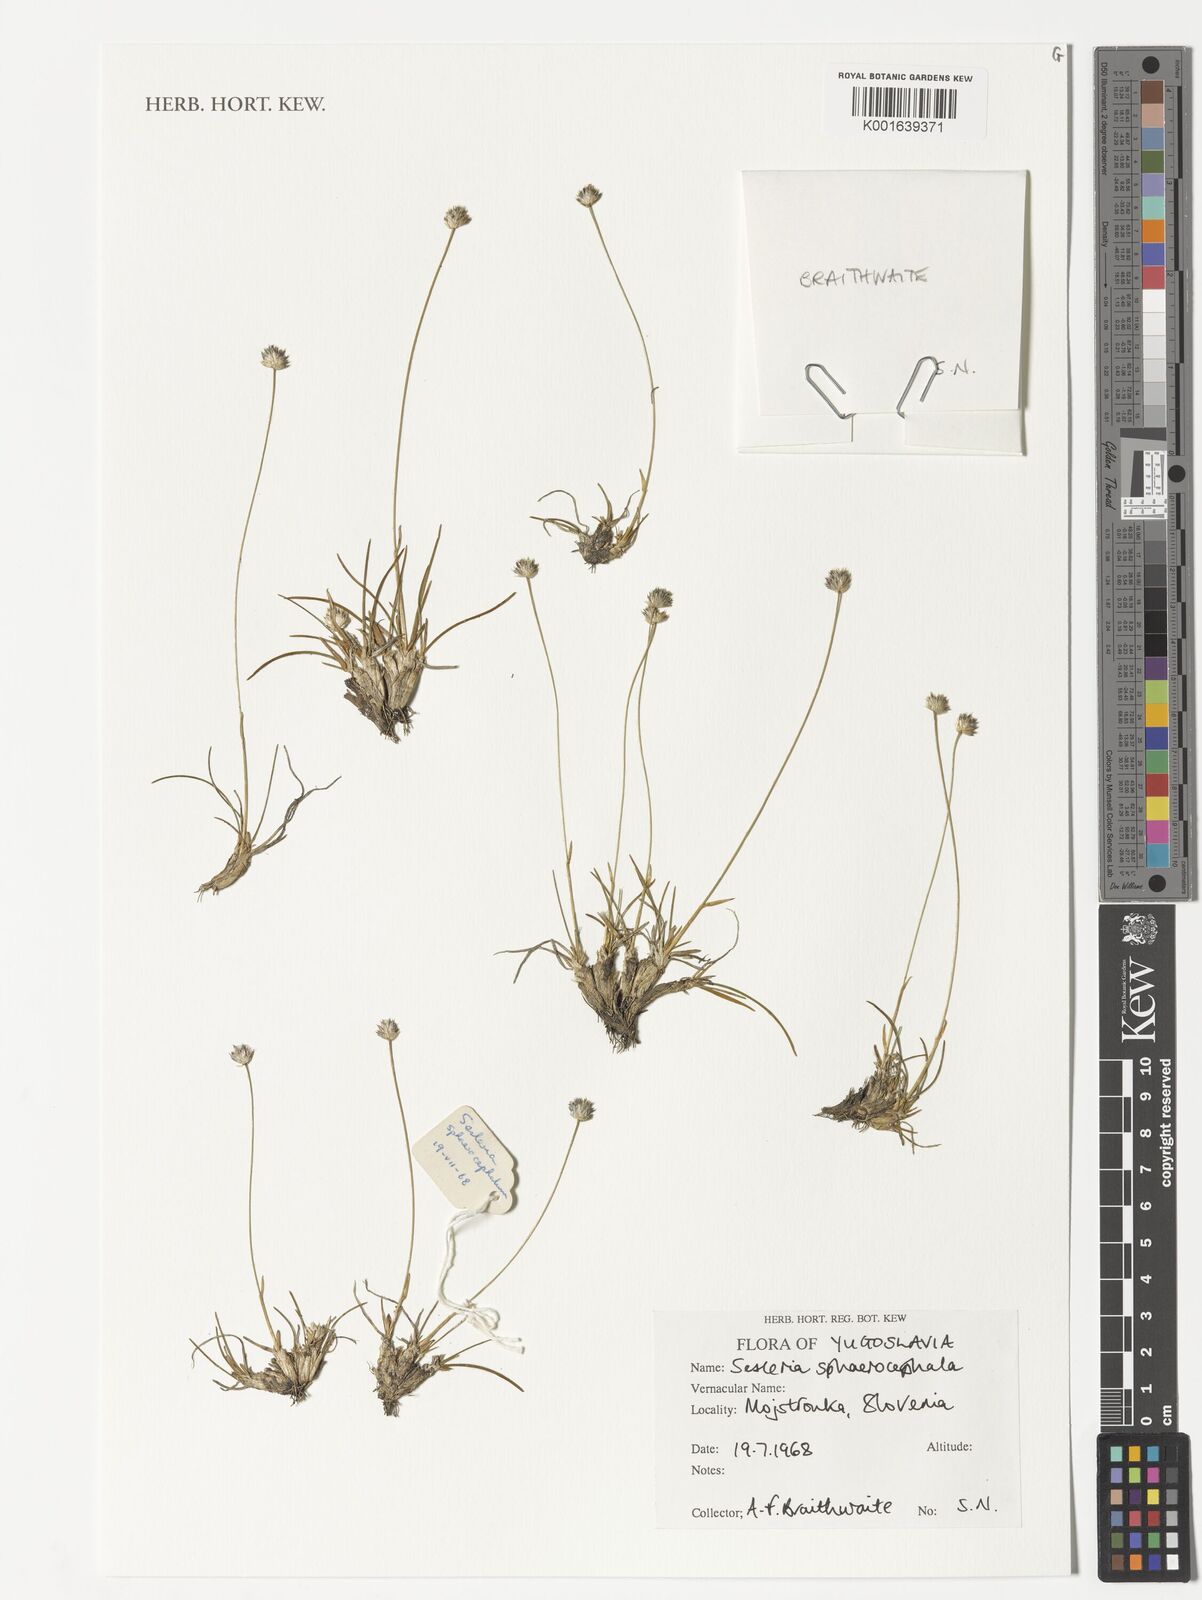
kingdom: Plantae
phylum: Tracheophyta
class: Liliopsida
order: Poales
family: Poaceae
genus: Sesleriella
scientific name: Sesleriella sphaerocephala
